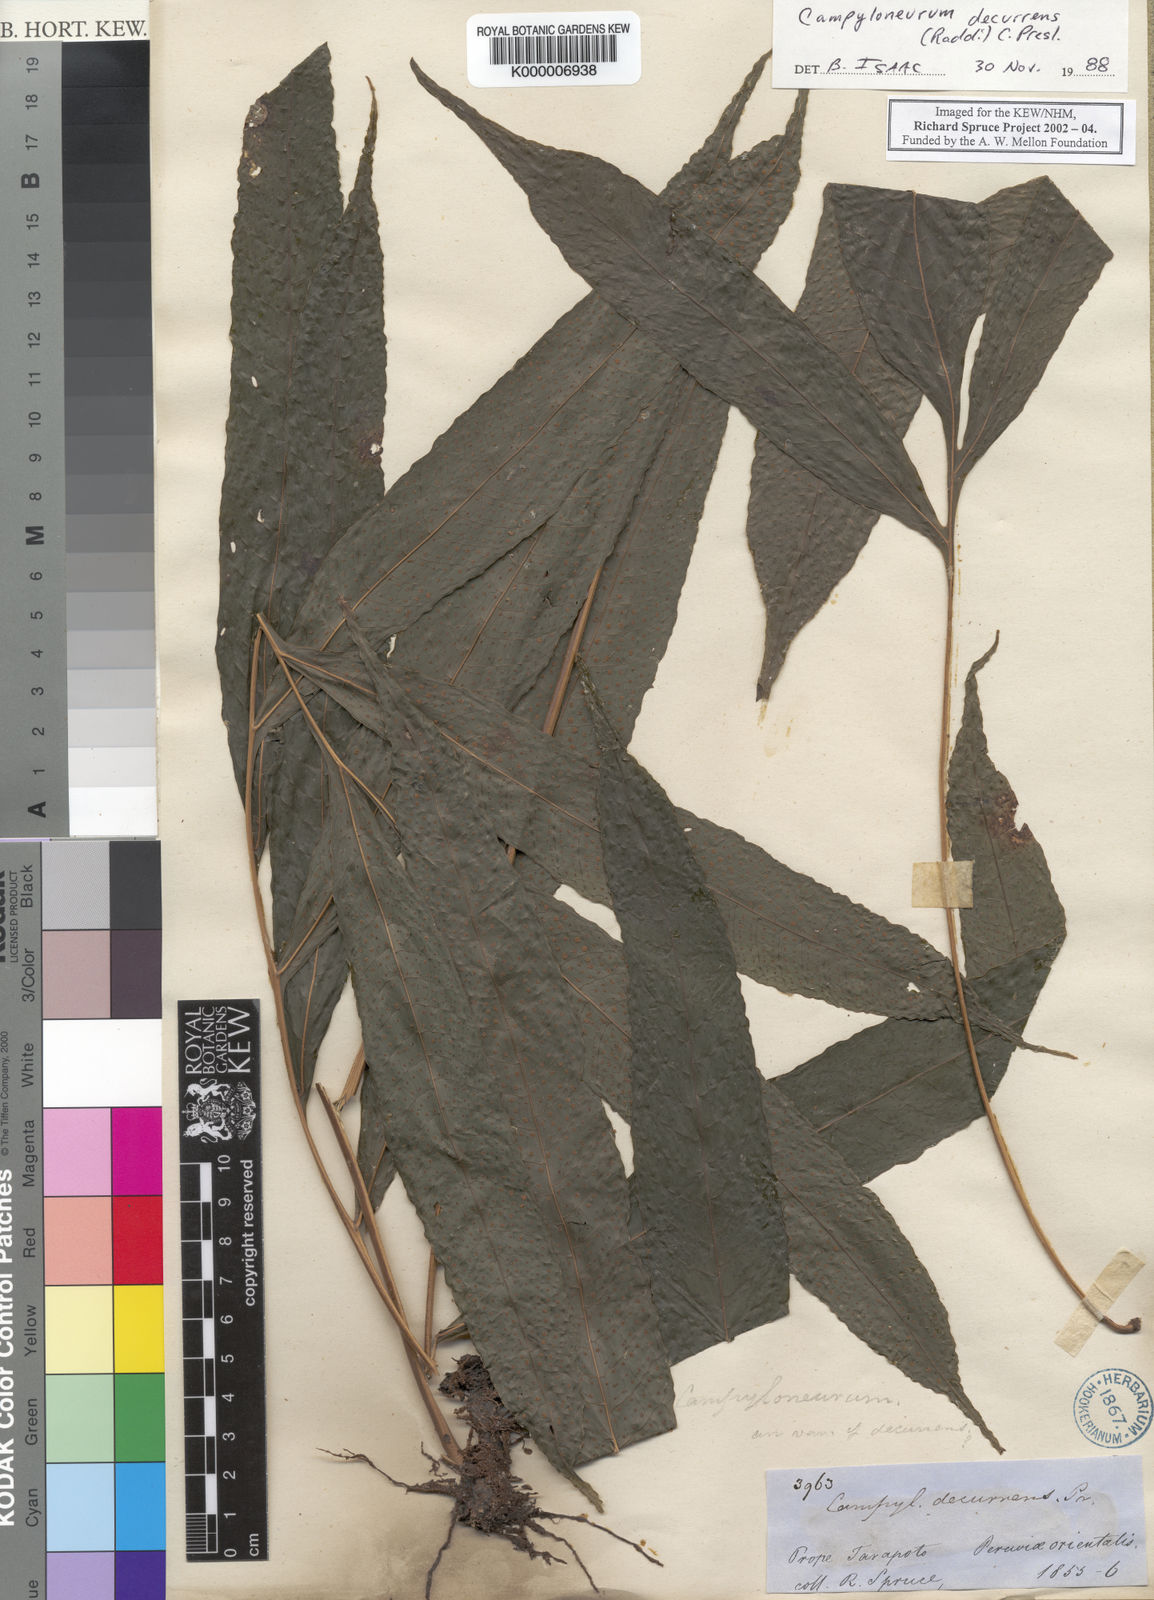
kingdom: Plantae
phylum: Tracheophyta
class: Polypodiopsida
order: Polypodiales
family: Polypodiaceae
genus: Campyloneurum
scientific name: Campyloneurum decurrens
